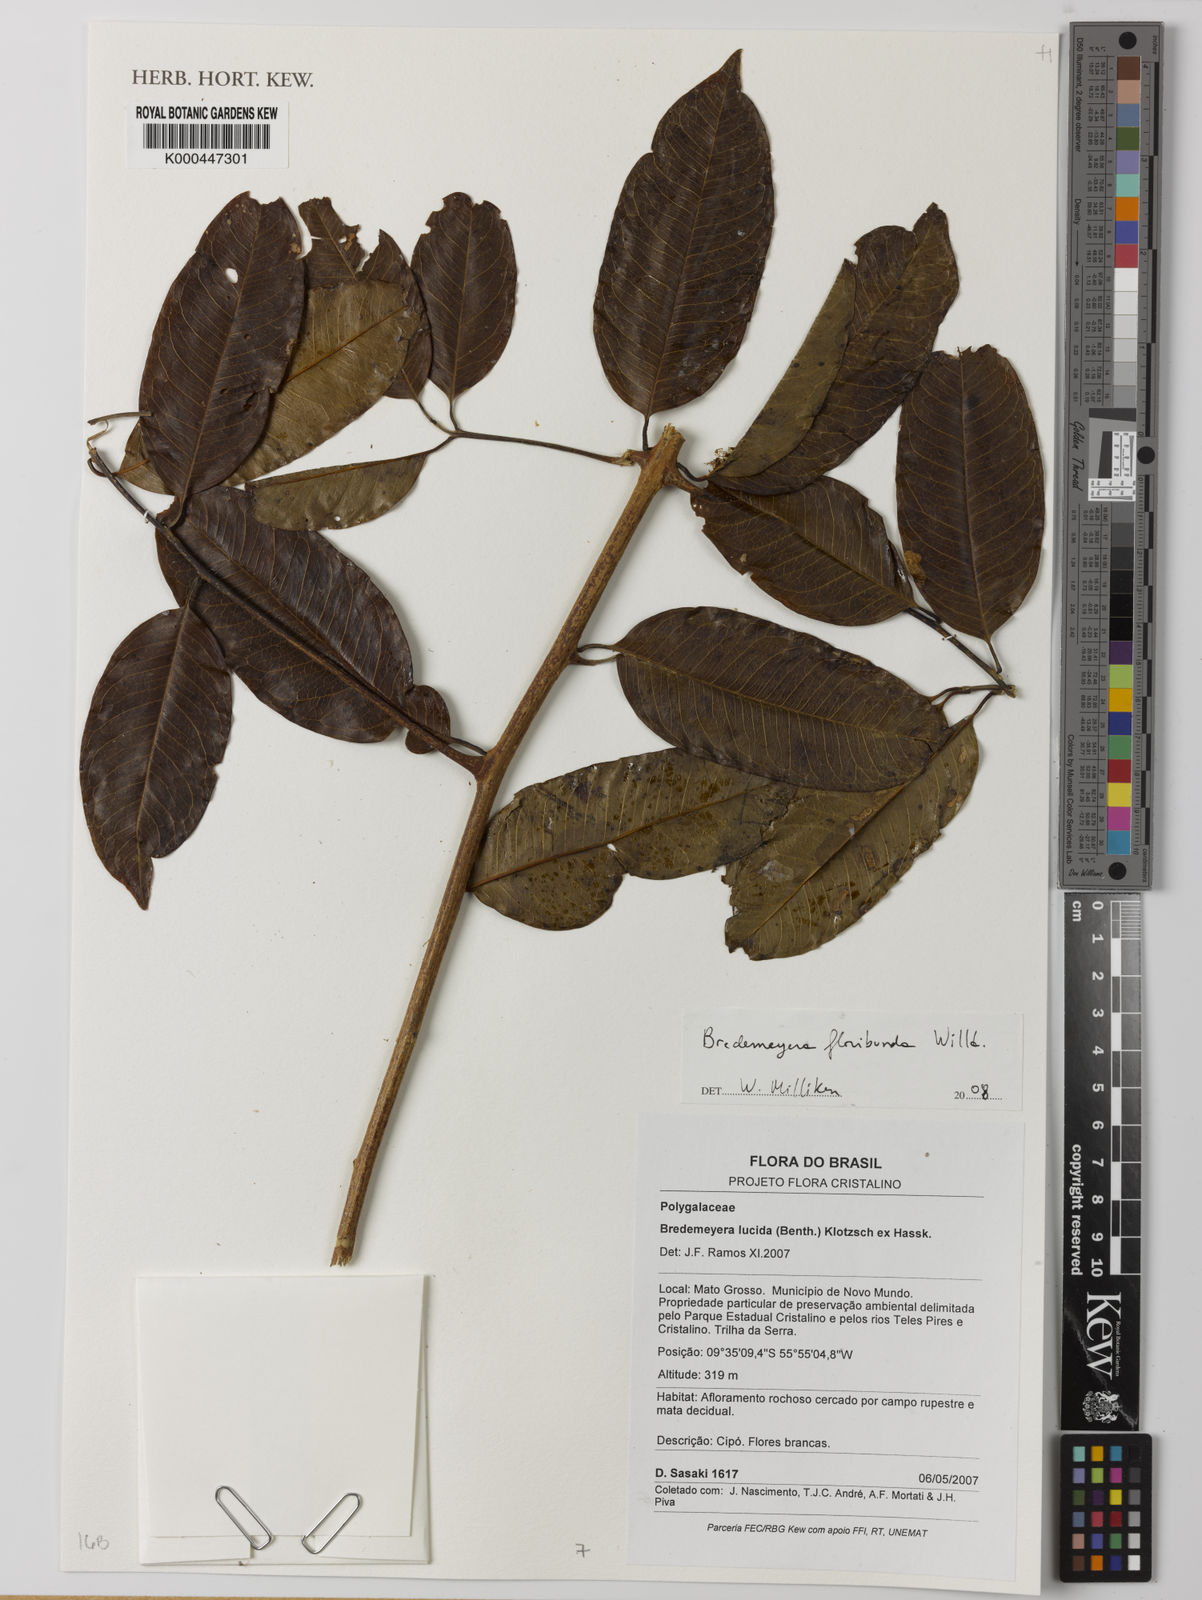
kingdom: Plantae
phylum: Tracheophyta
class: Magnoliopsida
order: Fabales
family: Polygalaceae
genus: Bredemeyera
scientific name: Bredemeyera floribunda
